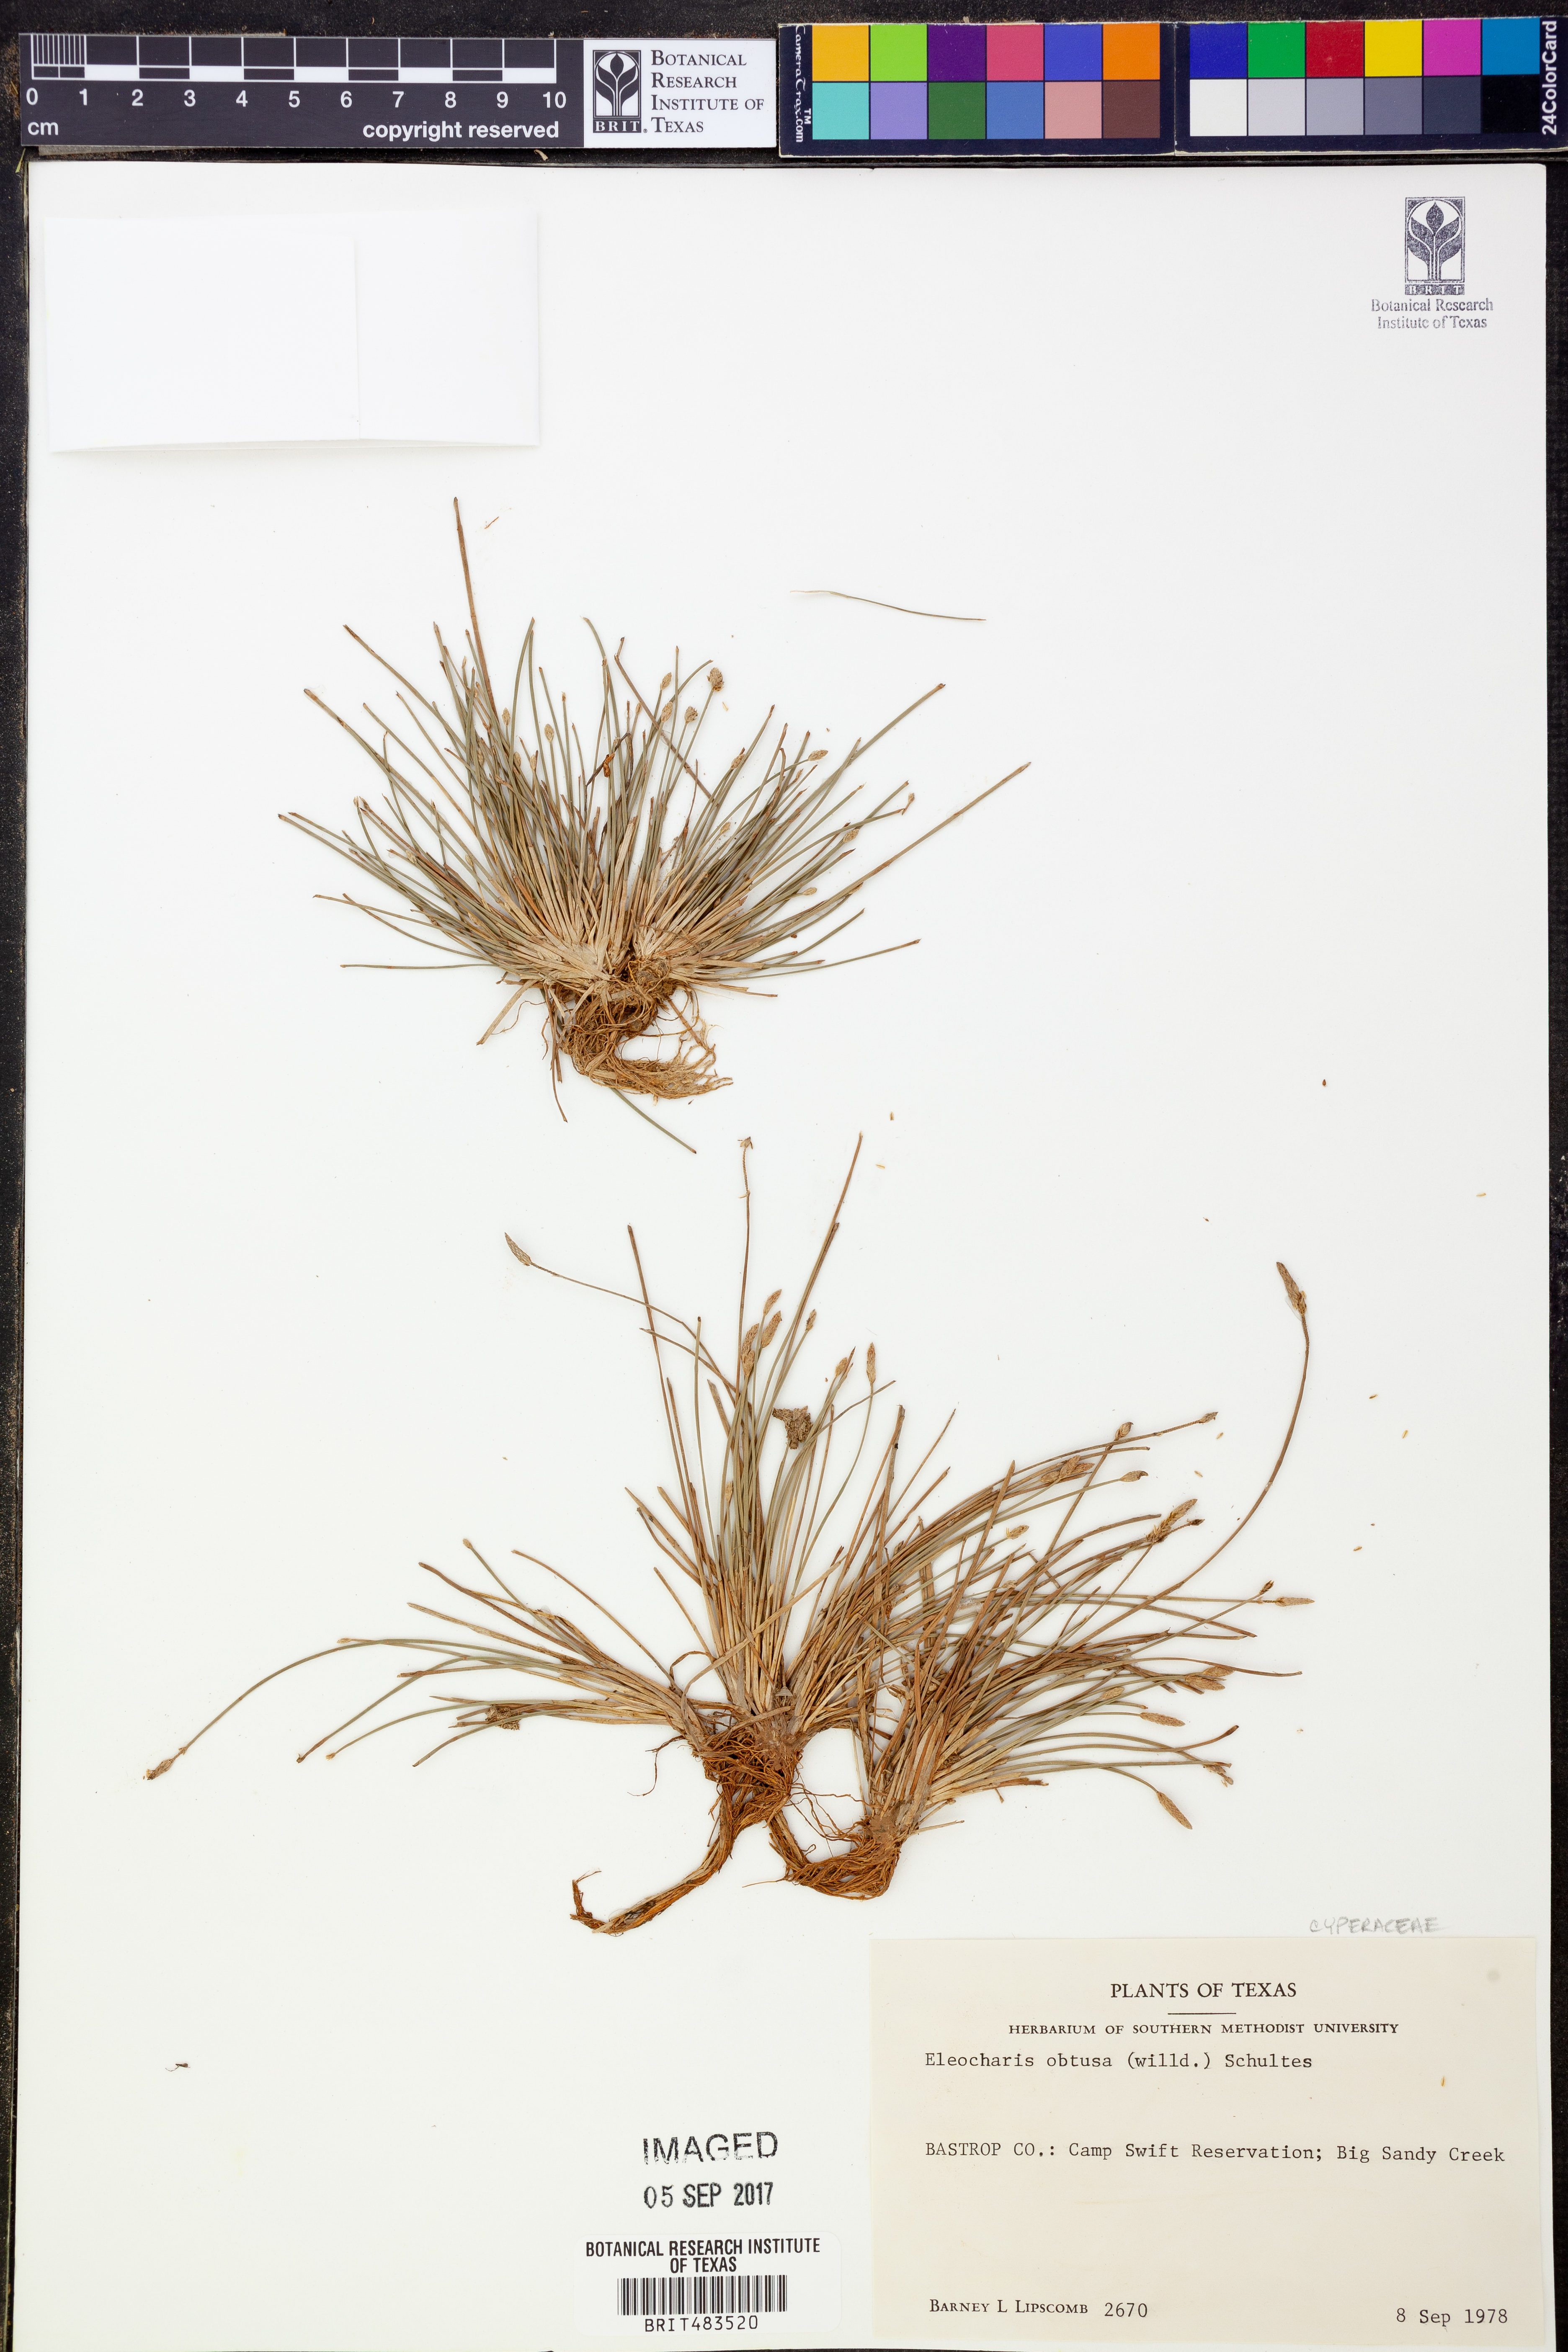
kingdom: Plantae
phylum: Tracheophyta
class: Liliopsida
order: Poales
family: Cyperaceae
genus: Eleocharis
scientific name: Eleocharis obtusa
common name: Blunt spikerush
